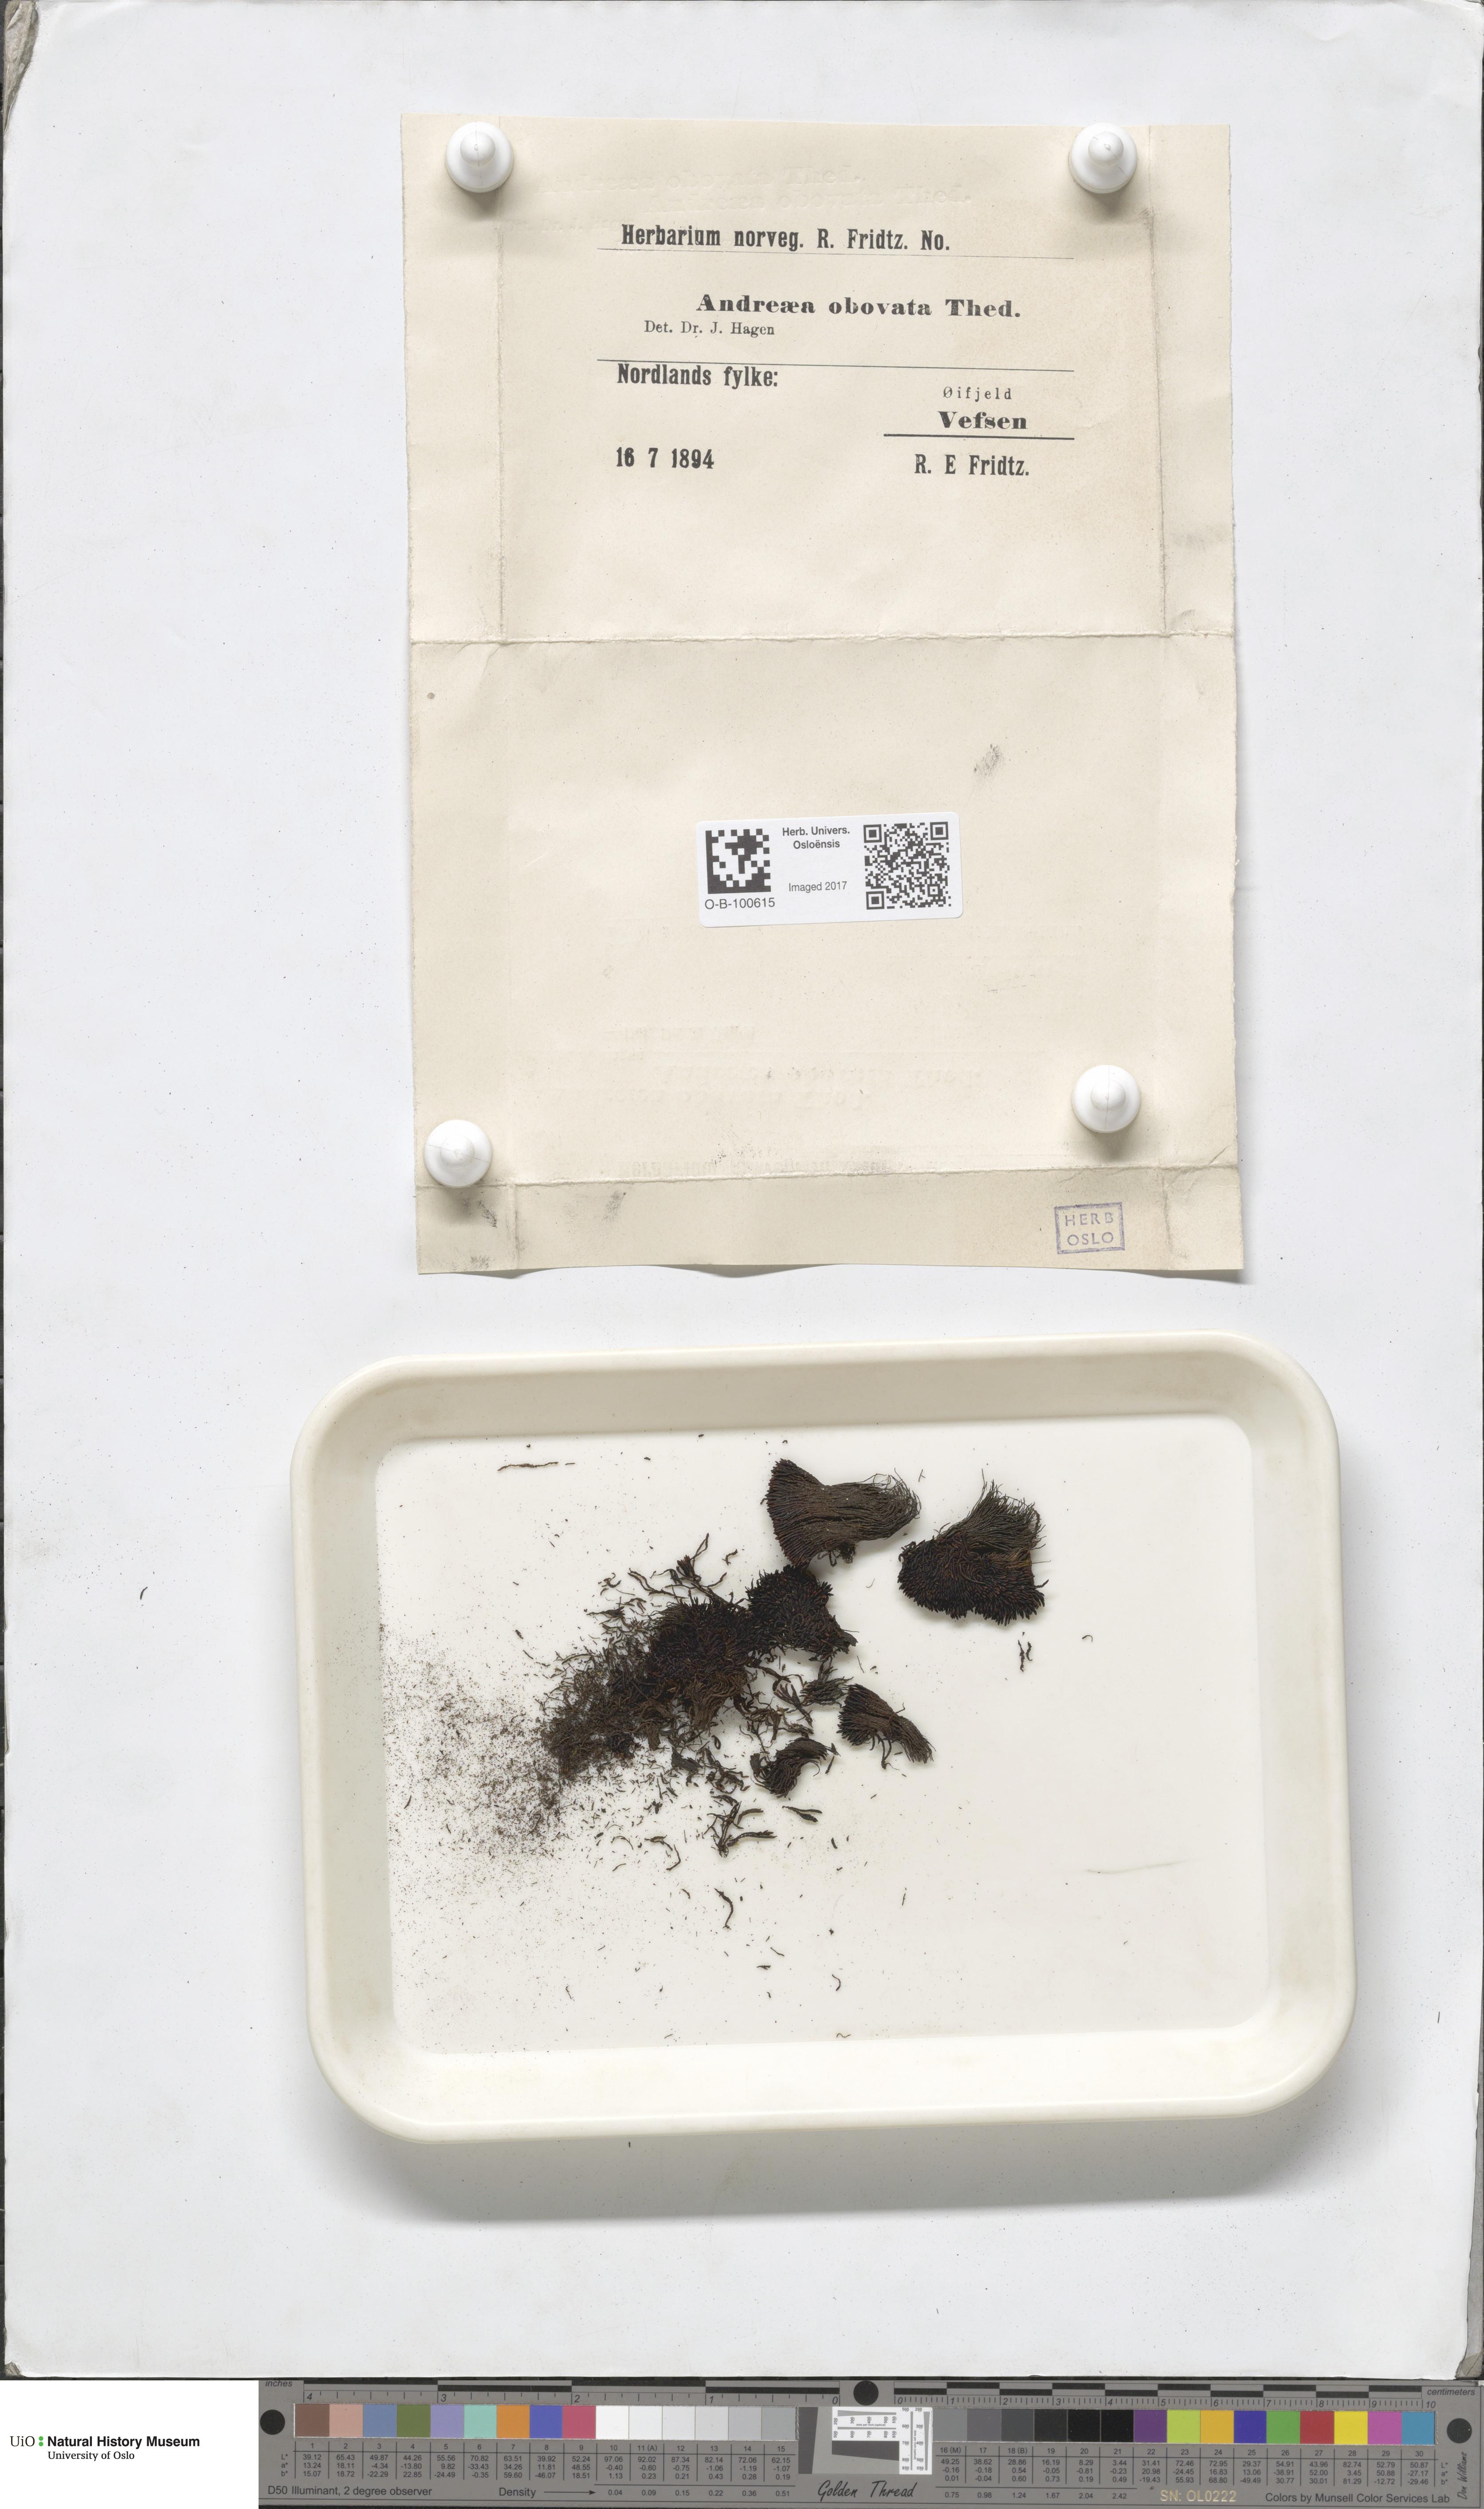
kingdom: Plantae
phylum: Bryophyta
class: Andreaeopsida
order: Andreaeales
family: Andreaeaceae
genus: Andreaea
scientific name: Andreaea alpina
